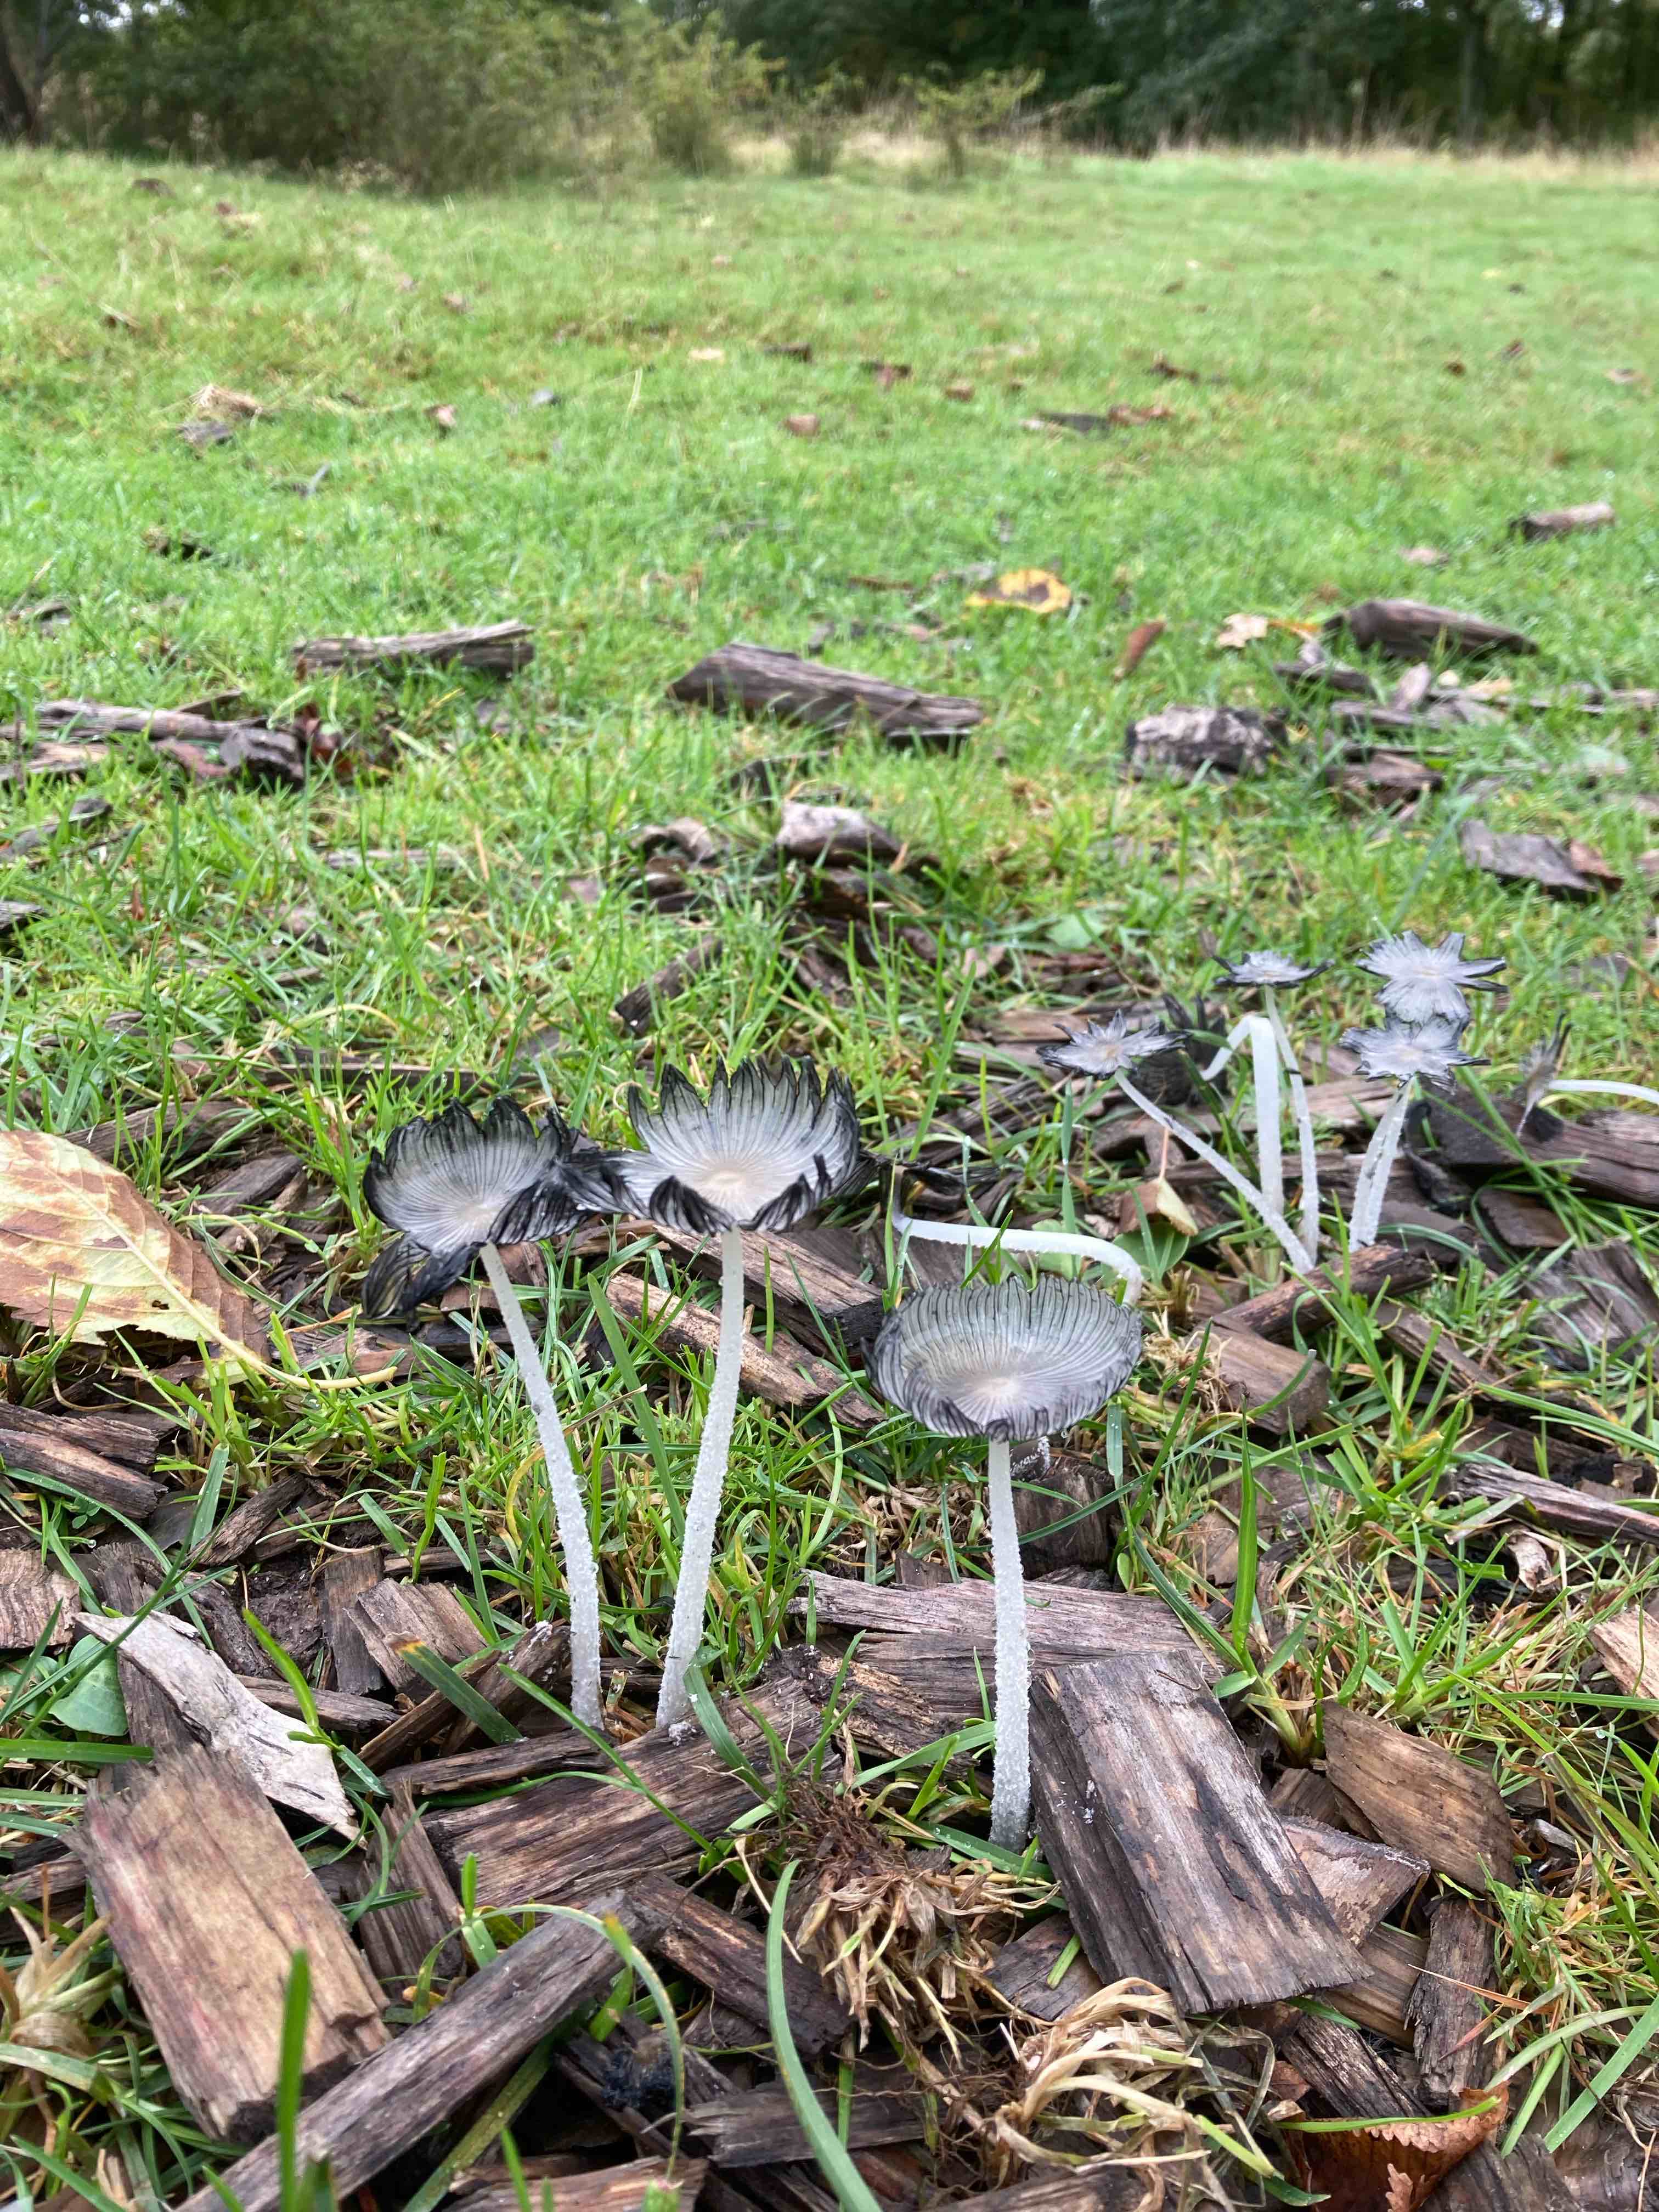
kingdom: Fungi
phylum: Basidiomycota
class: Agaricomycetes
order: Agaricales
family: Psathyrellaceae
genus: Coprinopsis
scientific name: Coprinopsis lagopus
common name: dunstokket blækhat
